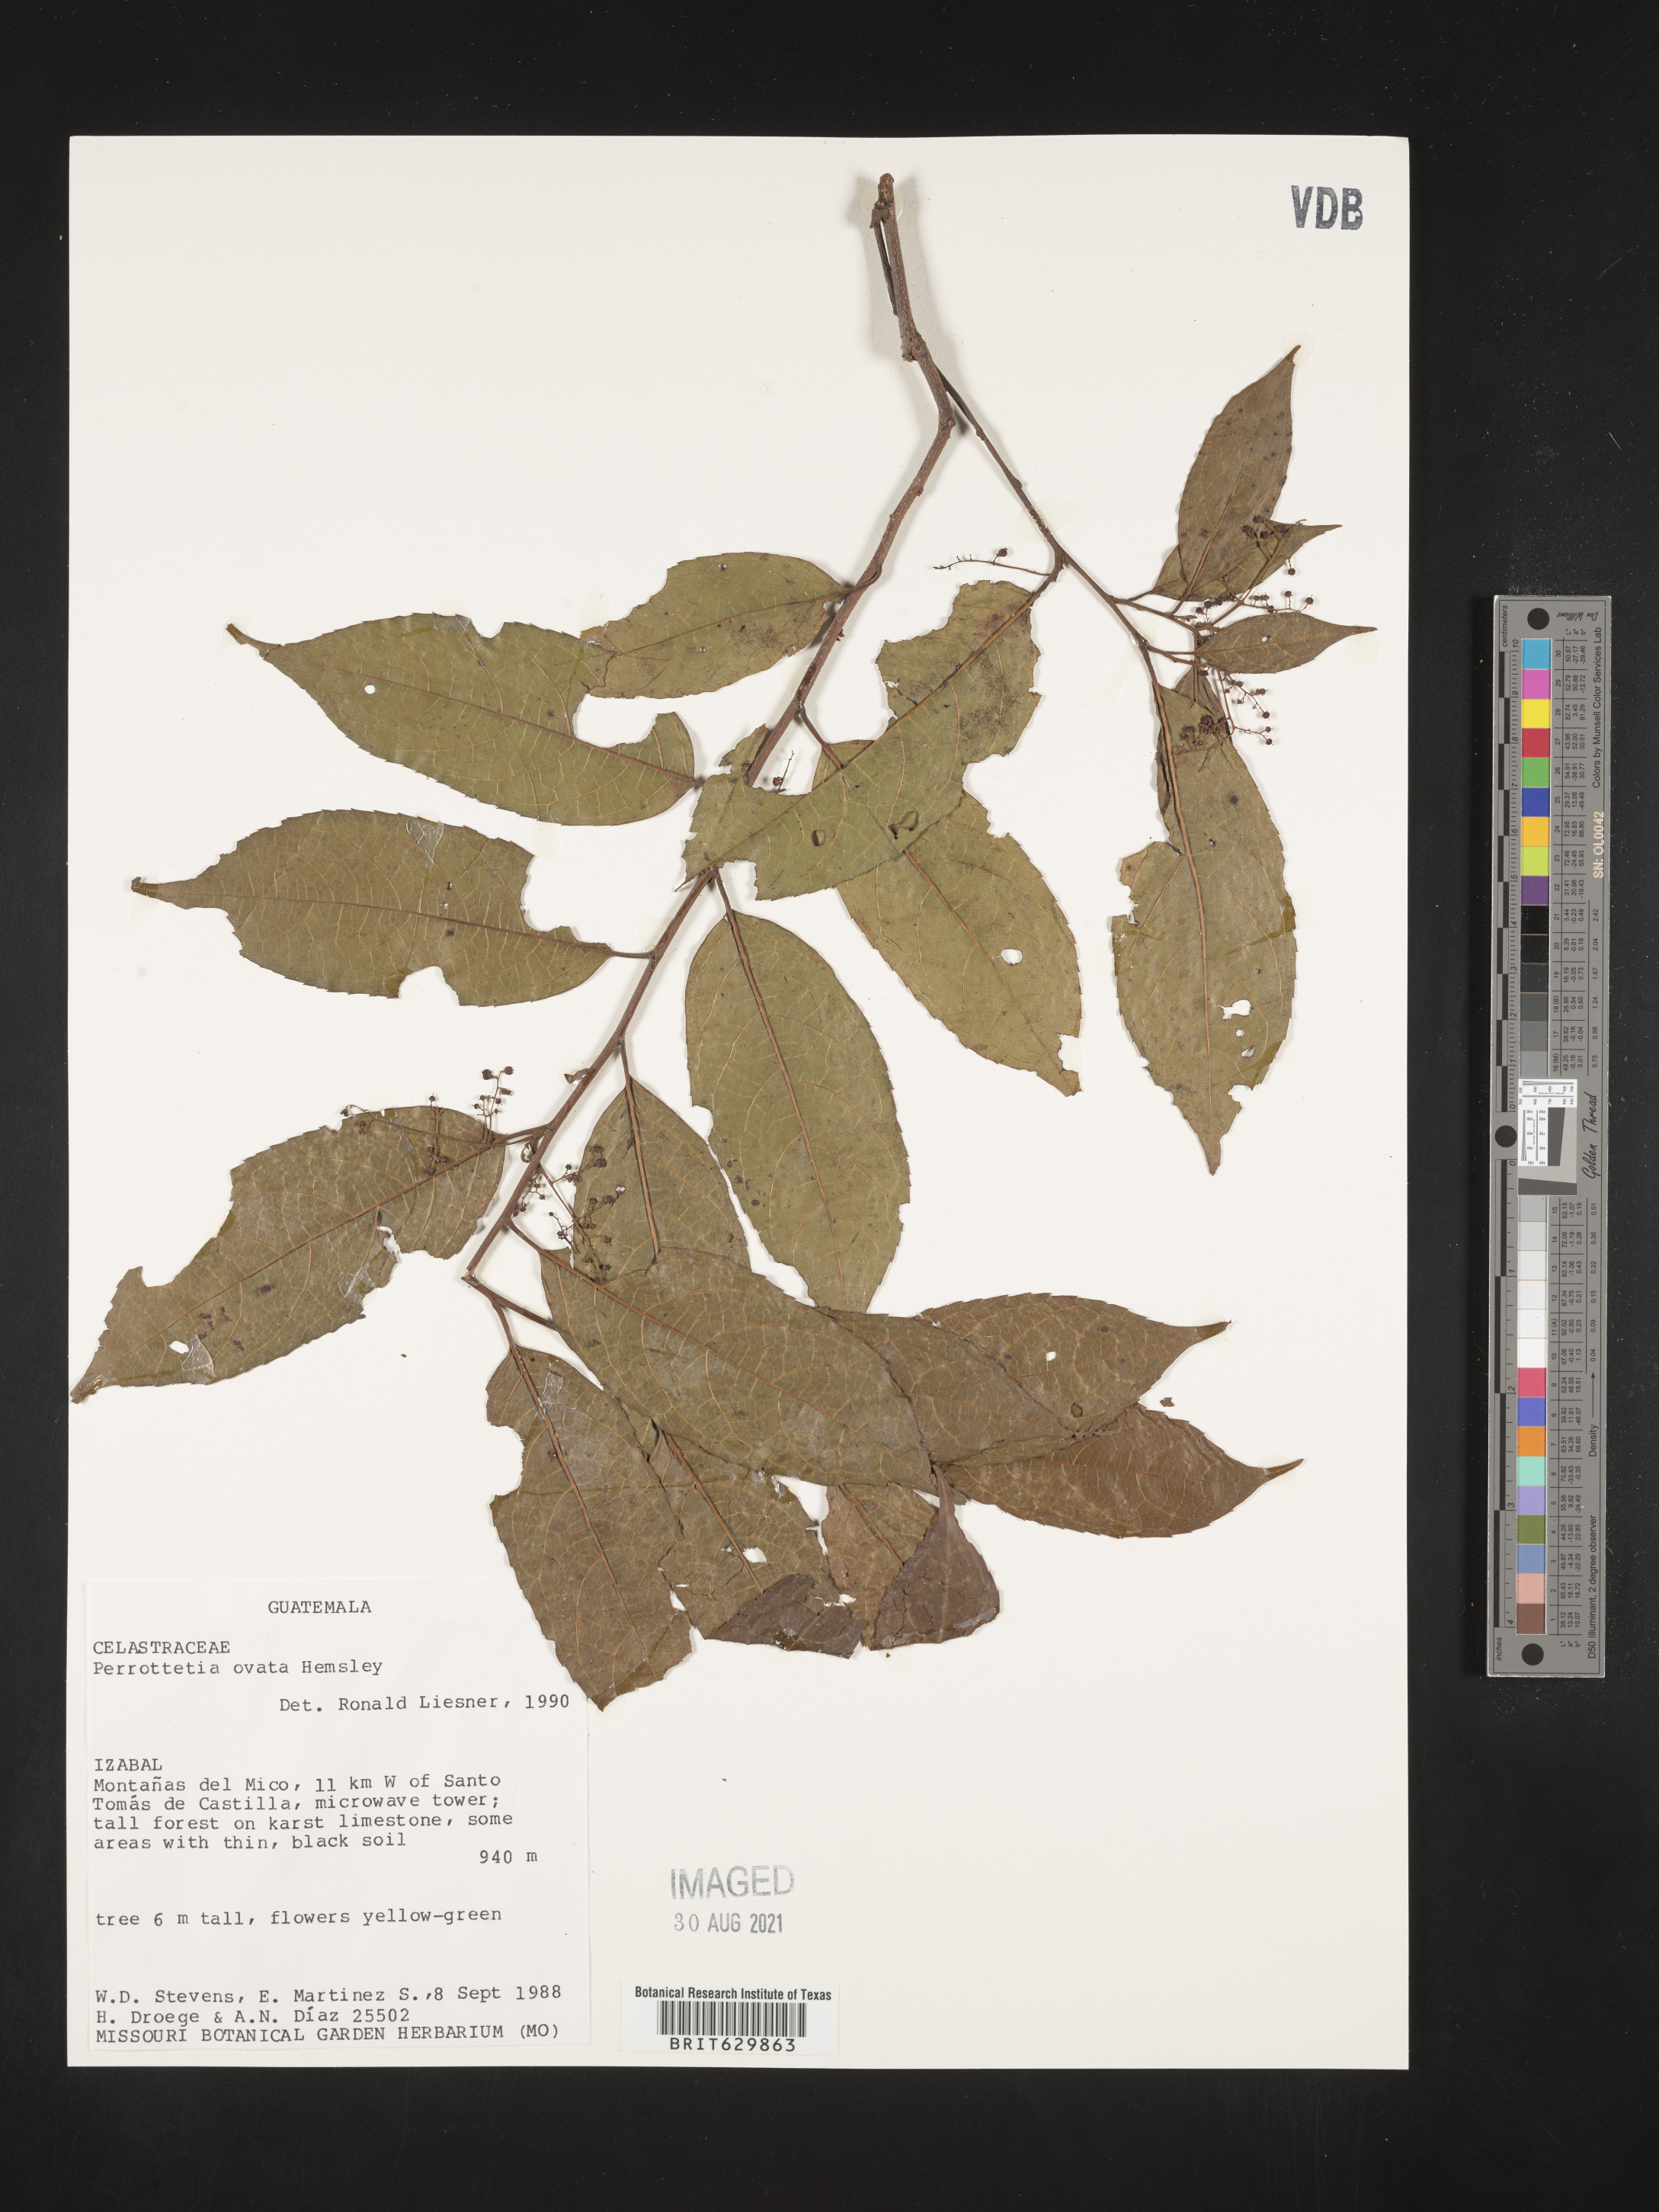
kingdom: Plantae
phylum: Tracheophyta
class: Magnoliopsida
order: Huerteales
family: Dipentodontaceae
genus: Perrottetia
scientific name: Perrottetia
